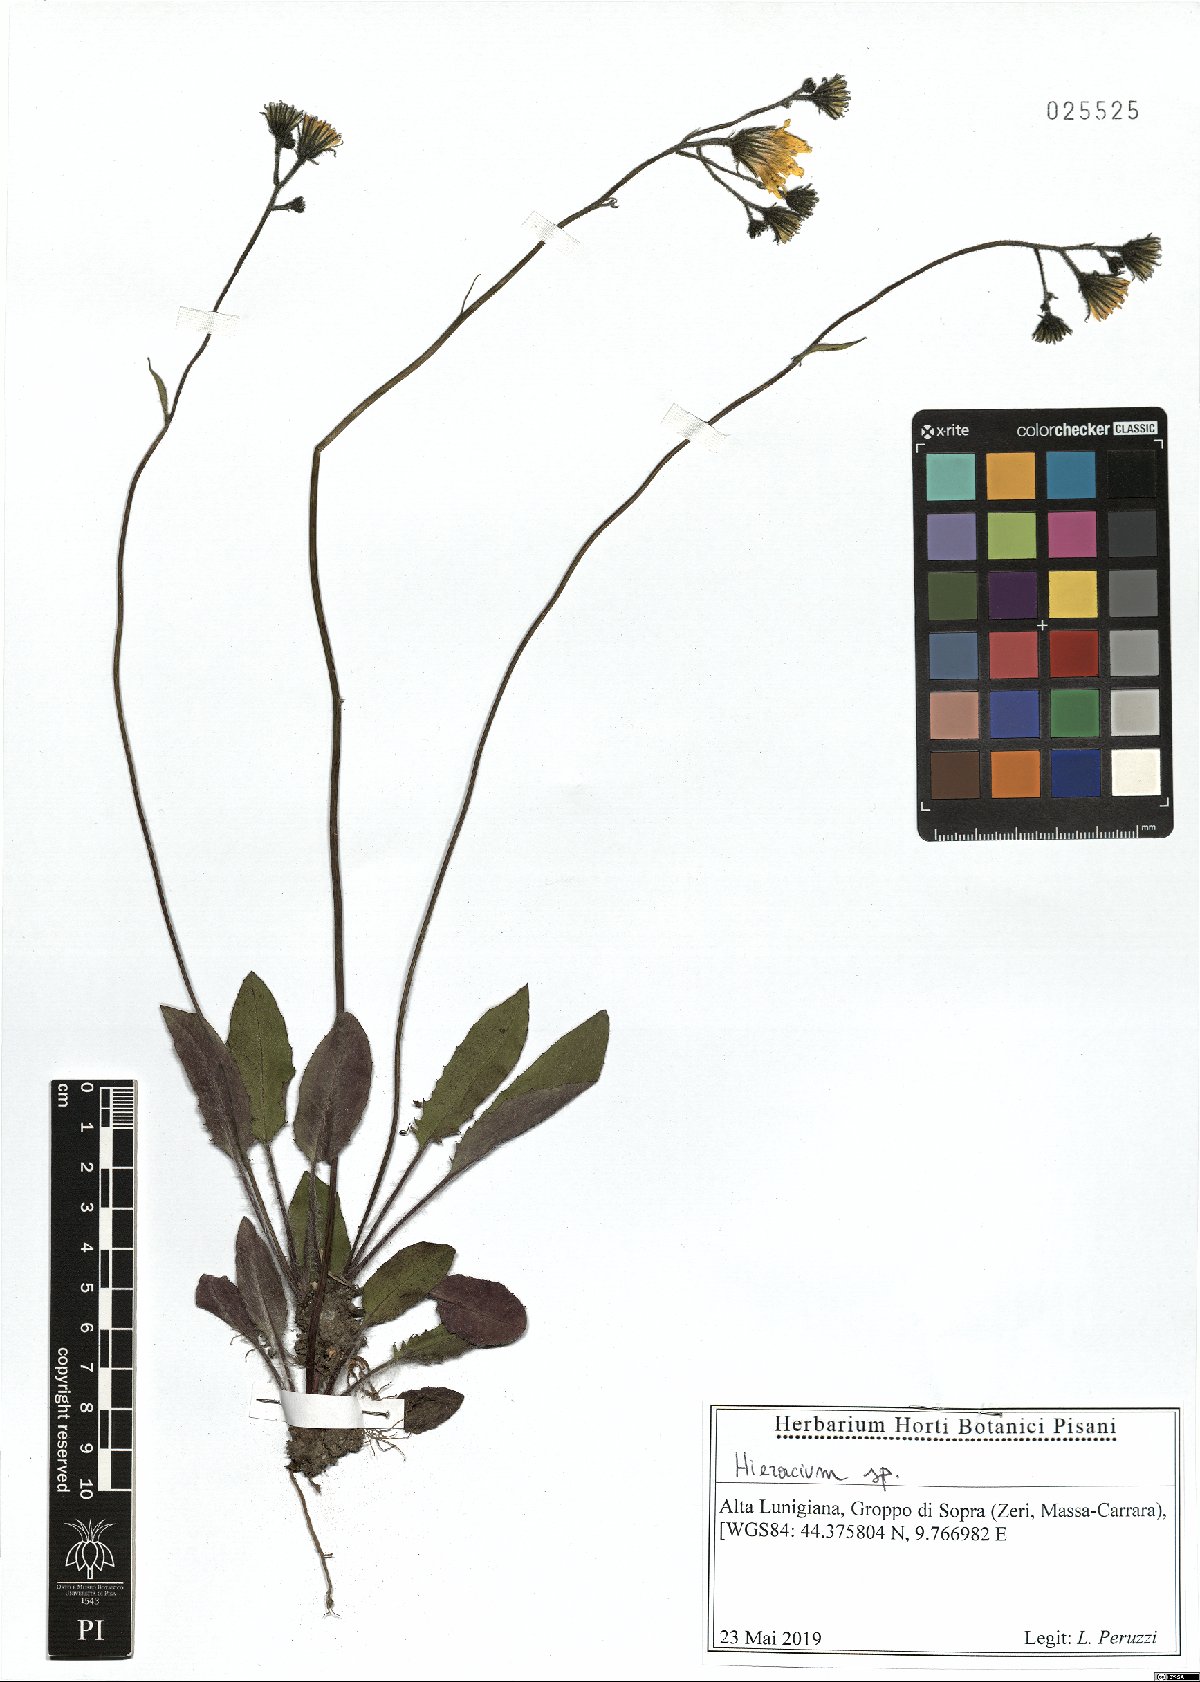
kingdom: Plantae
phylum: Tracheophyta
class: Magnoliopsida
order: Asterales
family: Asteraceae
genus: Hieracium
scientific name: Hieracium murorum
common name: Wall hawkweed
